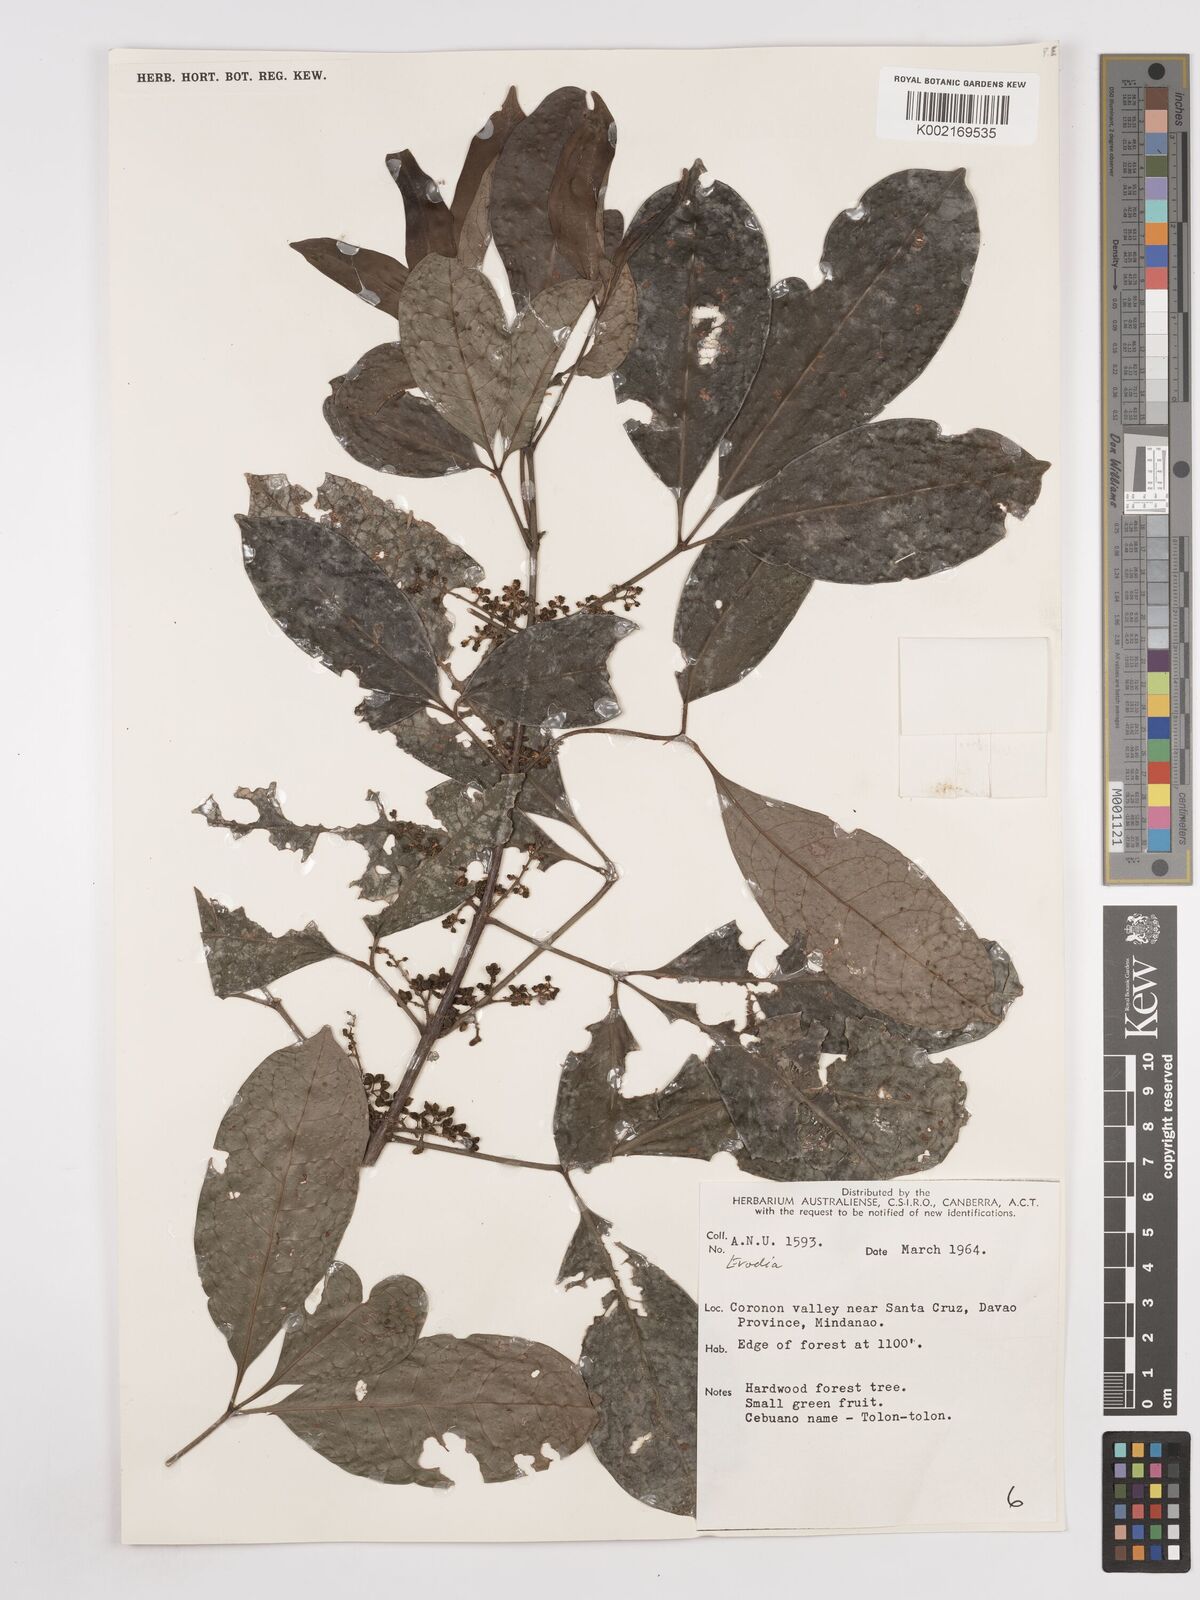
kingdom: Plantae
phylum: Tracheophyta
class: Magnoliopsida
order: Sapindales
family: Rutaceae
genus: Euodia
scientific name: Euodia
